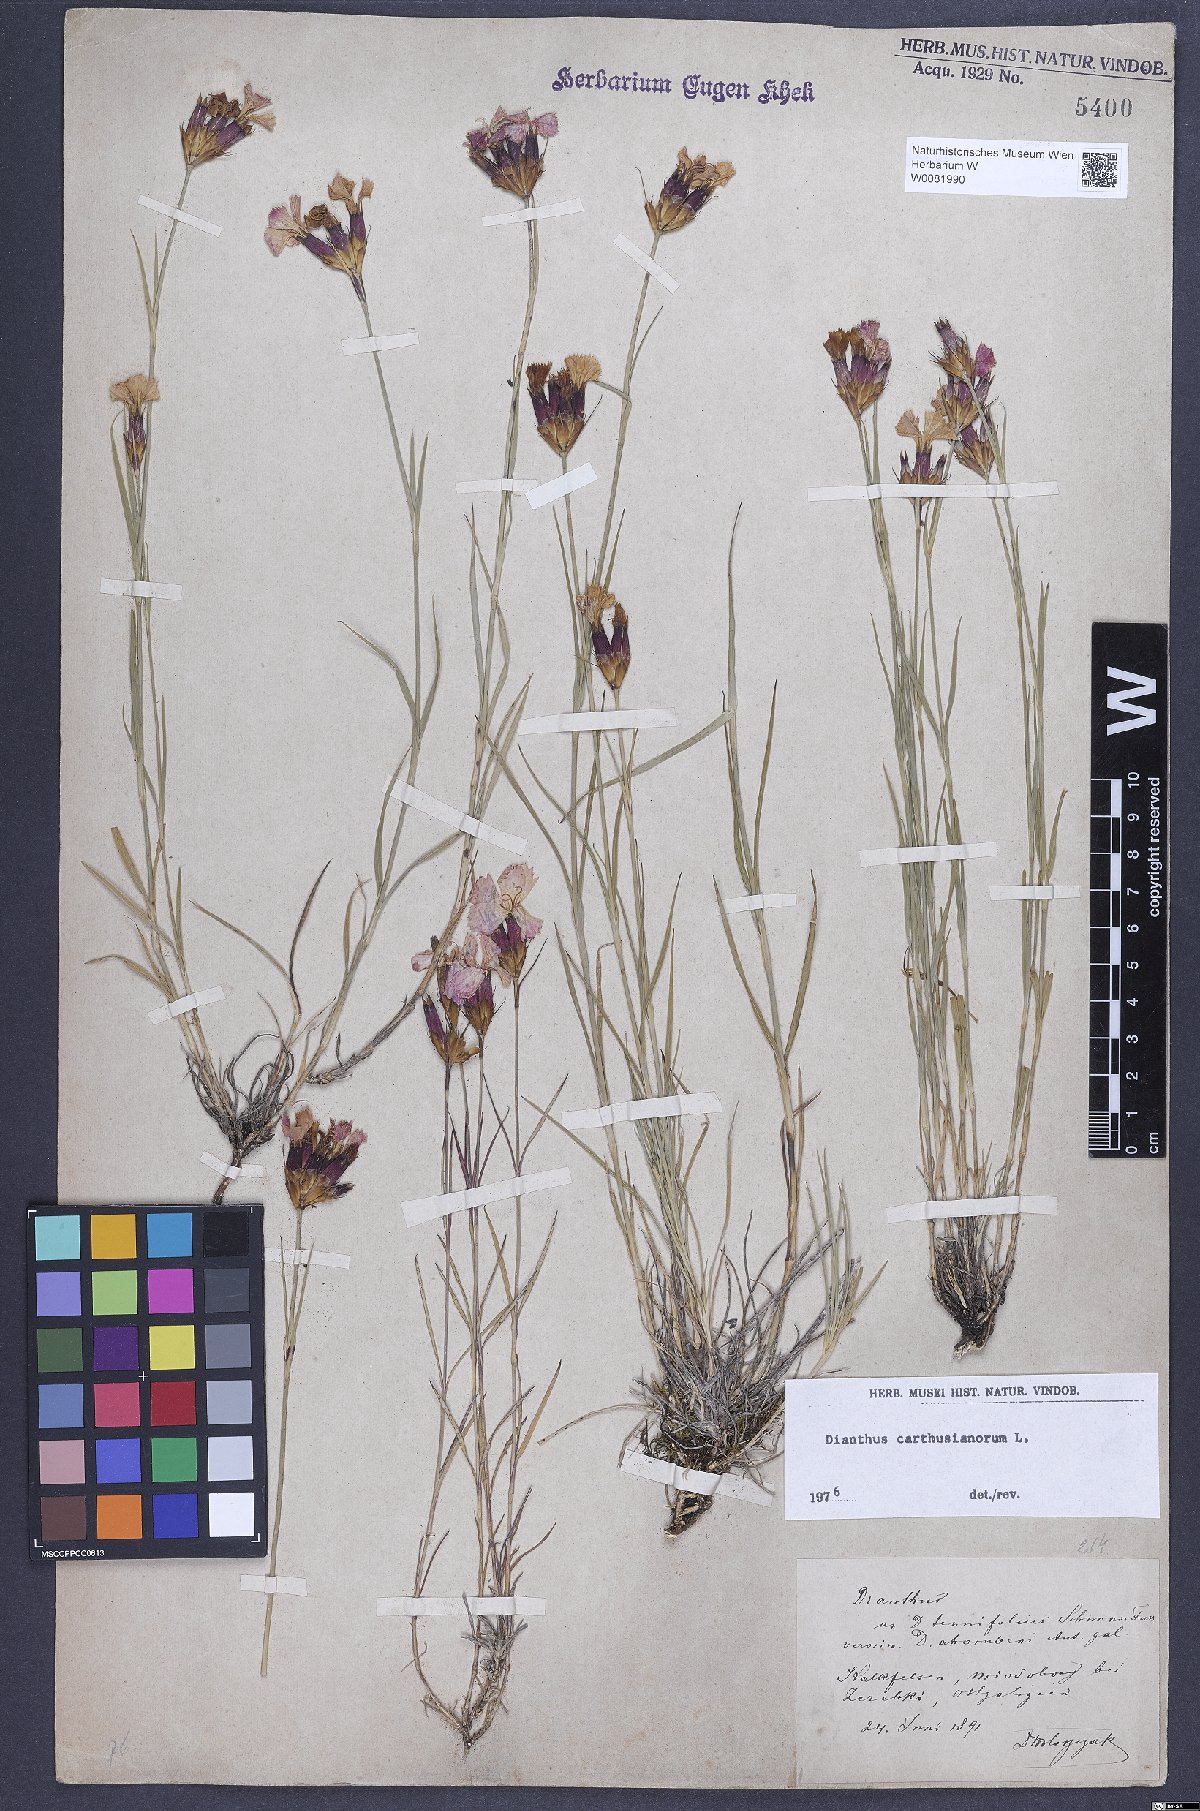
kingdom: Plantae
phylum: Tracheophyta
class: Magnoliopsida
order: Caryophyllales
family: Caryophyllaceae
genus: Dianthus
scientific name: Dianthus carthusianorum
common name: Carthusian pink
